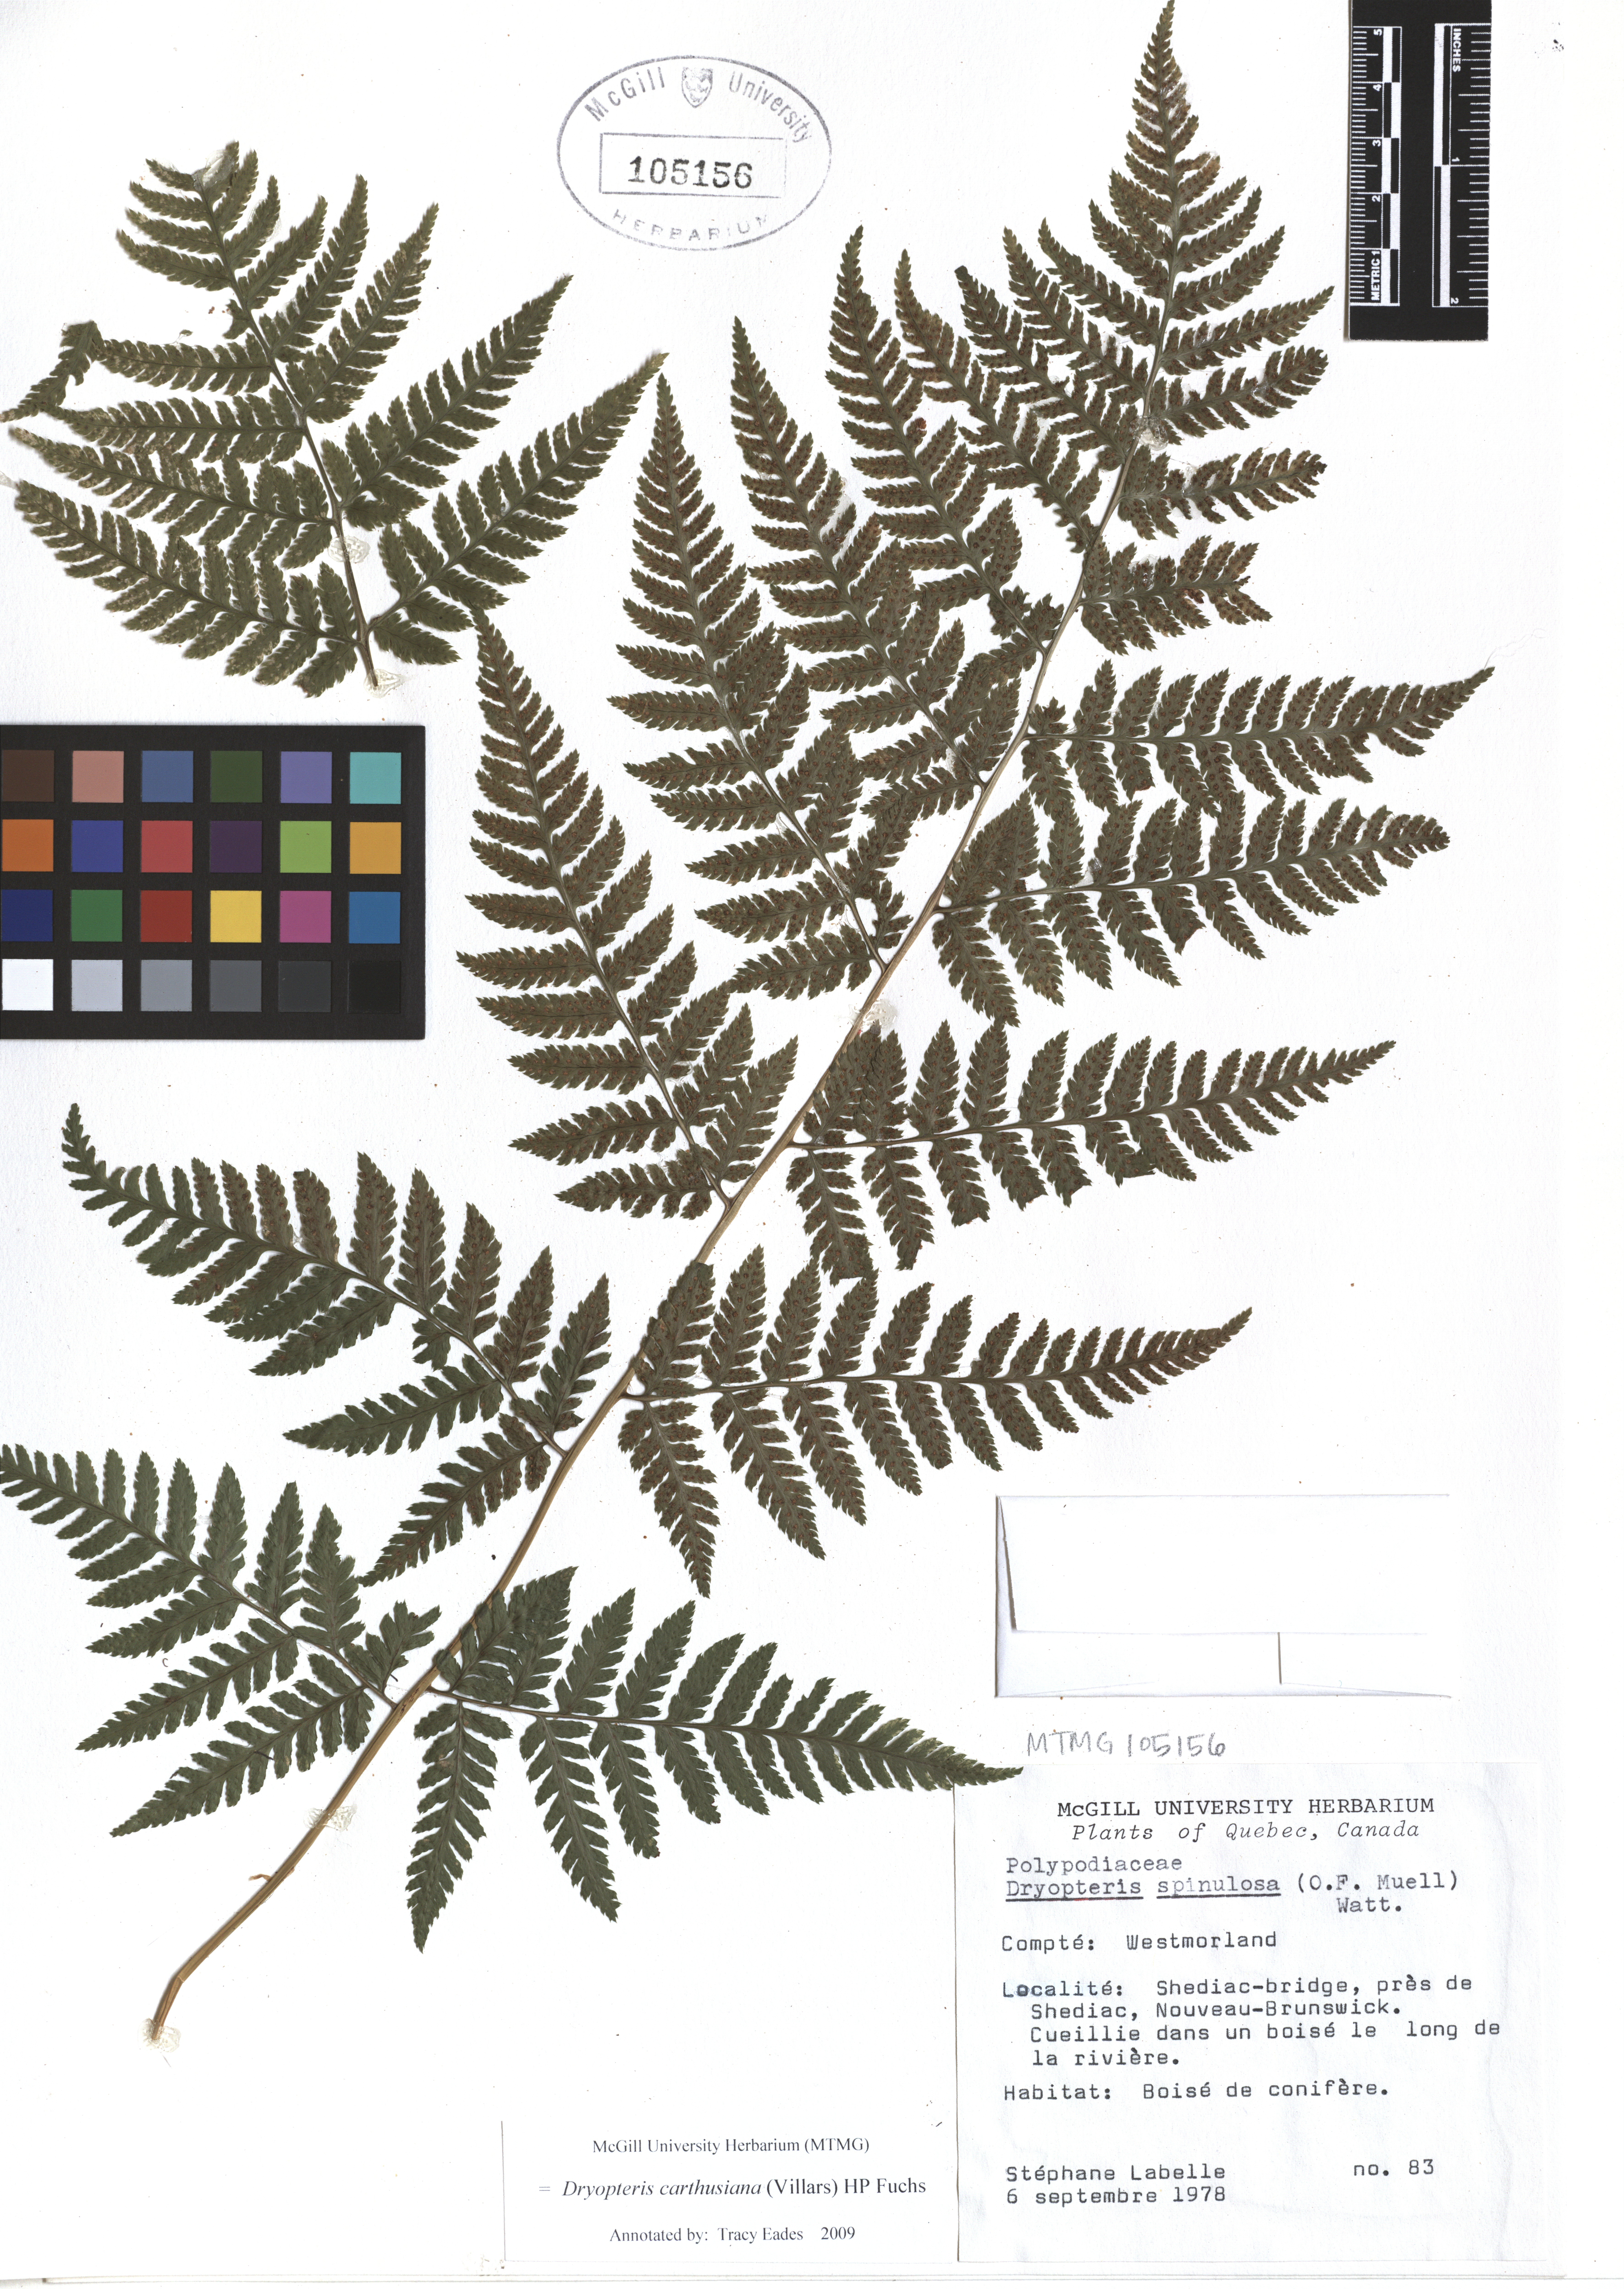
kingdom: Plantae
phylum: Tracheophyta
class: Polypodiopsida
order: Polypodiales
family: Dryopteridaceae
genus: Dryopteris
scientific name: Dryopteris carthusiana
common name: Narrow buckler-fern
